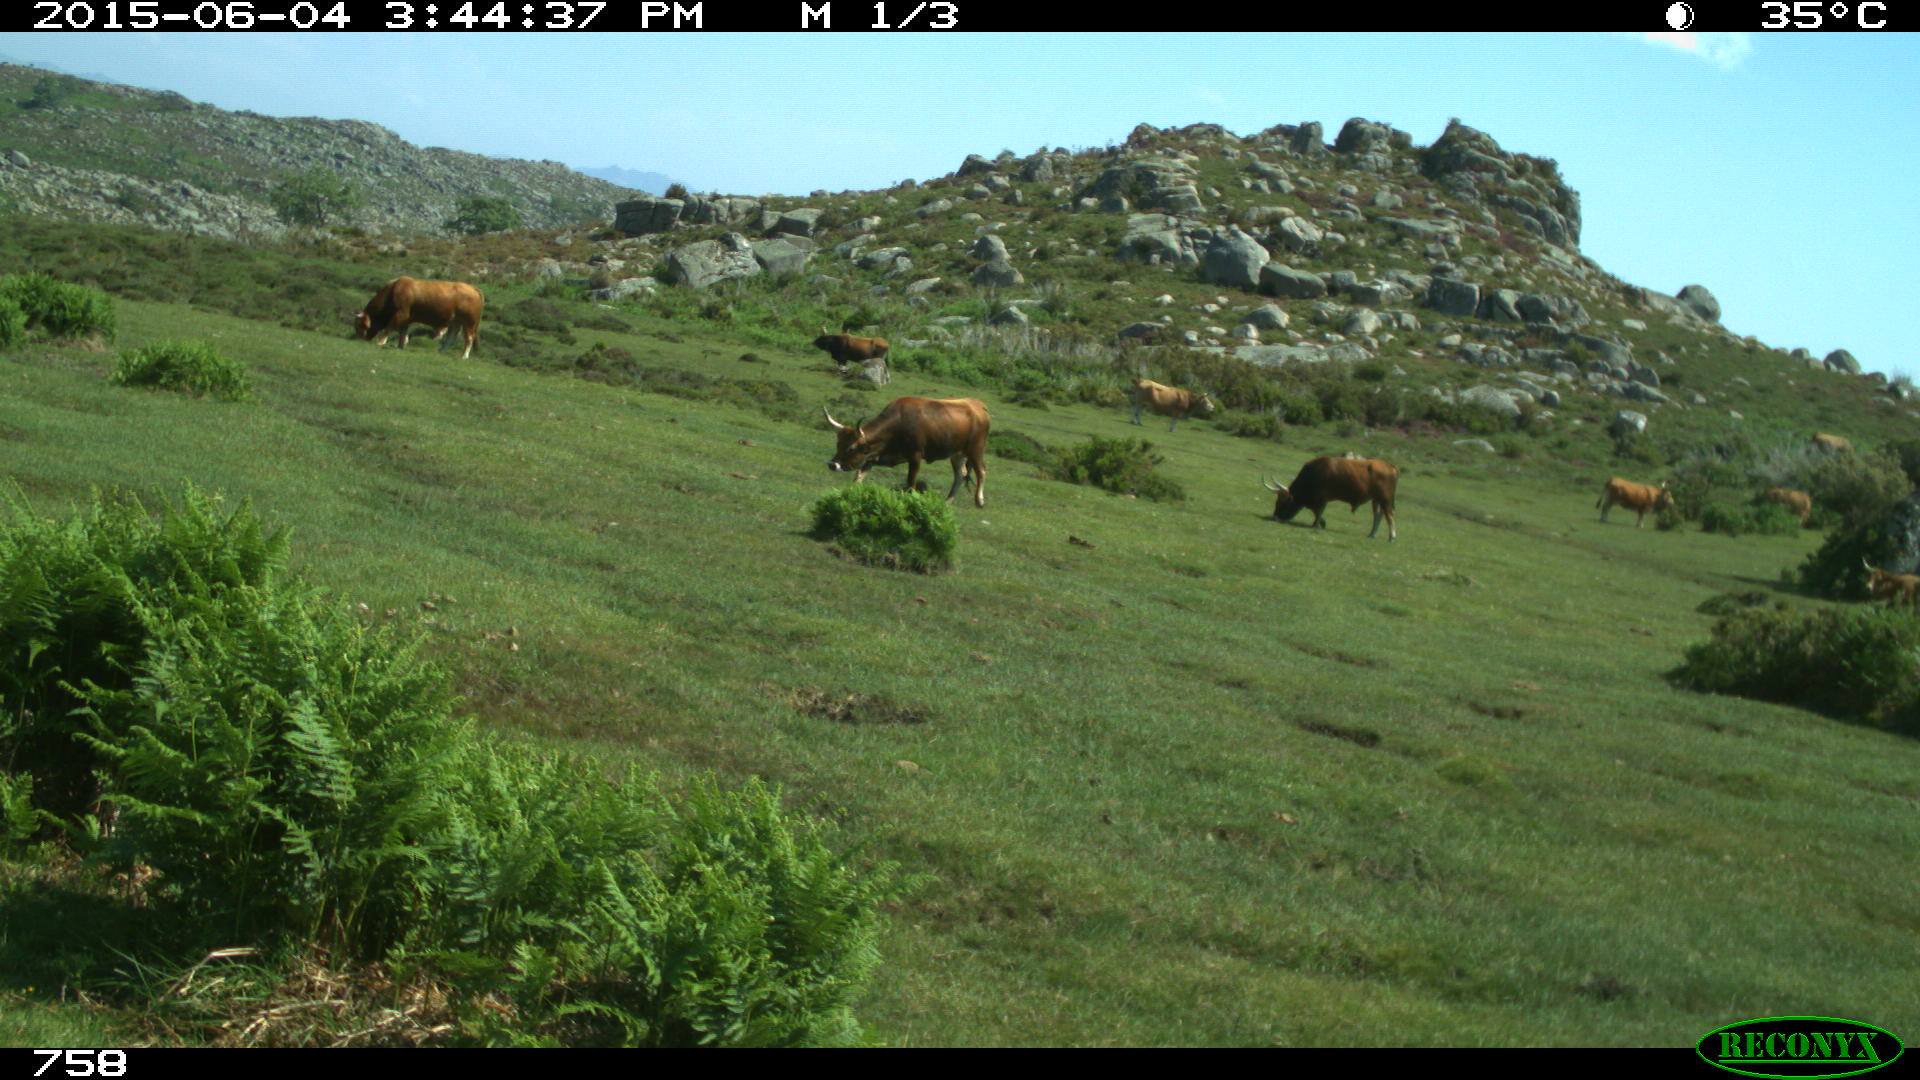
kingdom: Animalia
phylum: Chordata
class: Mammalia
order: Artiodactyla
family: Bovidae
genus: Bos
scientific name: Bos taurus
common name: Domesticated cattle
